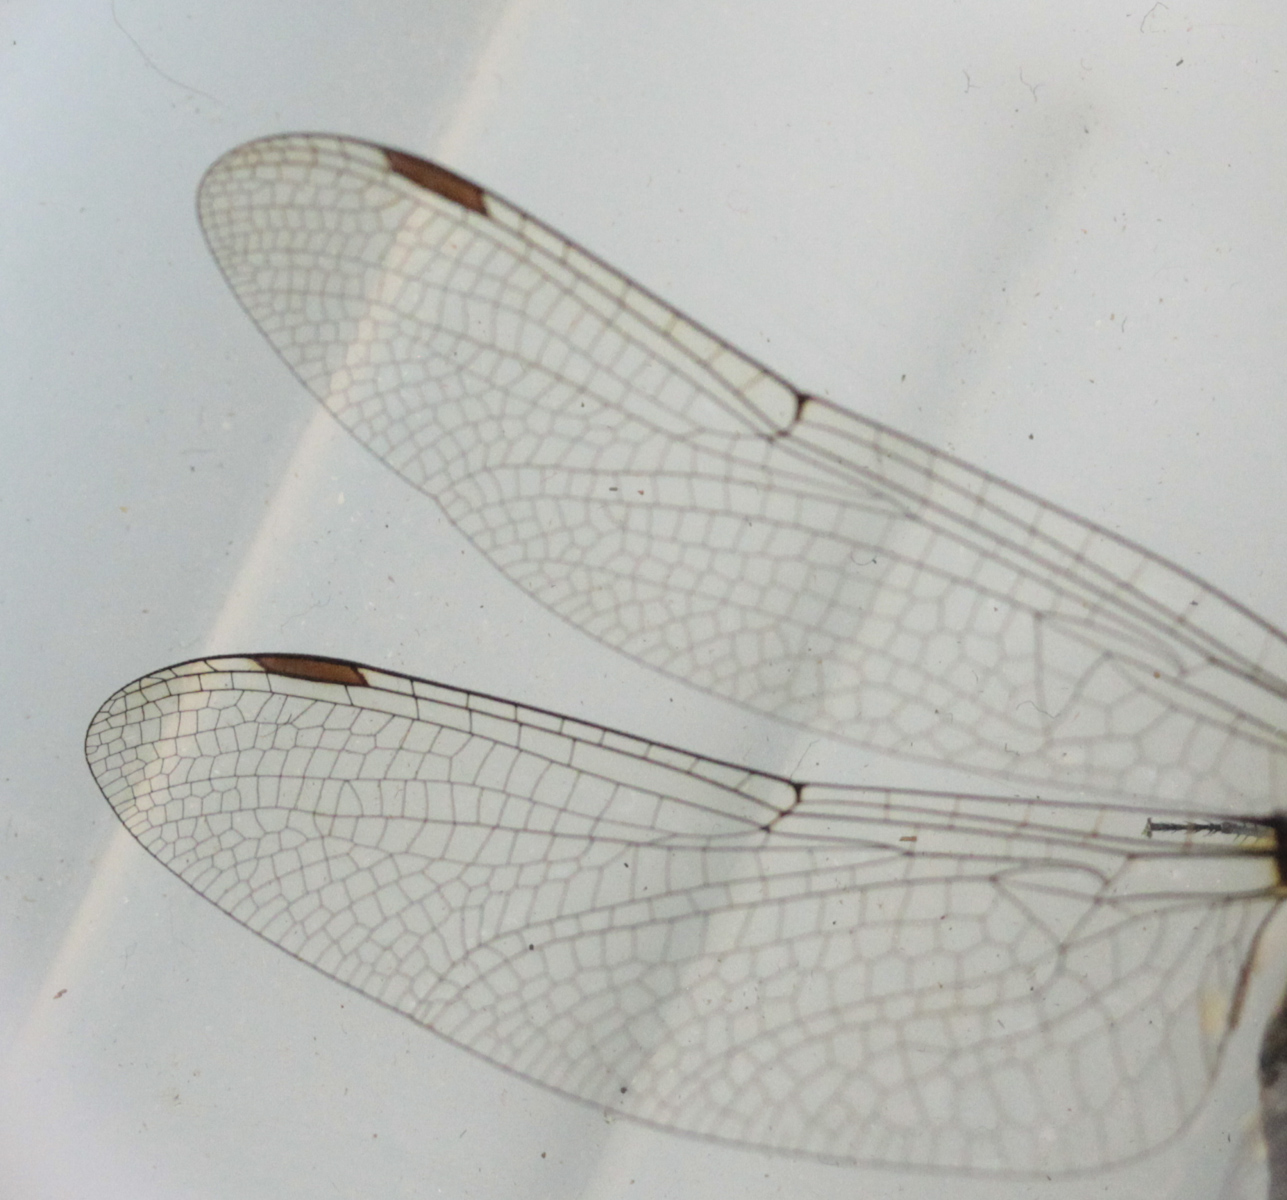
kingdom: Animalia
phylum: Arthropoda
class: Insecta
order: Odonata
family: Corduliidae
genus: Somatochlora
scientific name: Somatochlora arctica
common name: Northern emerald
